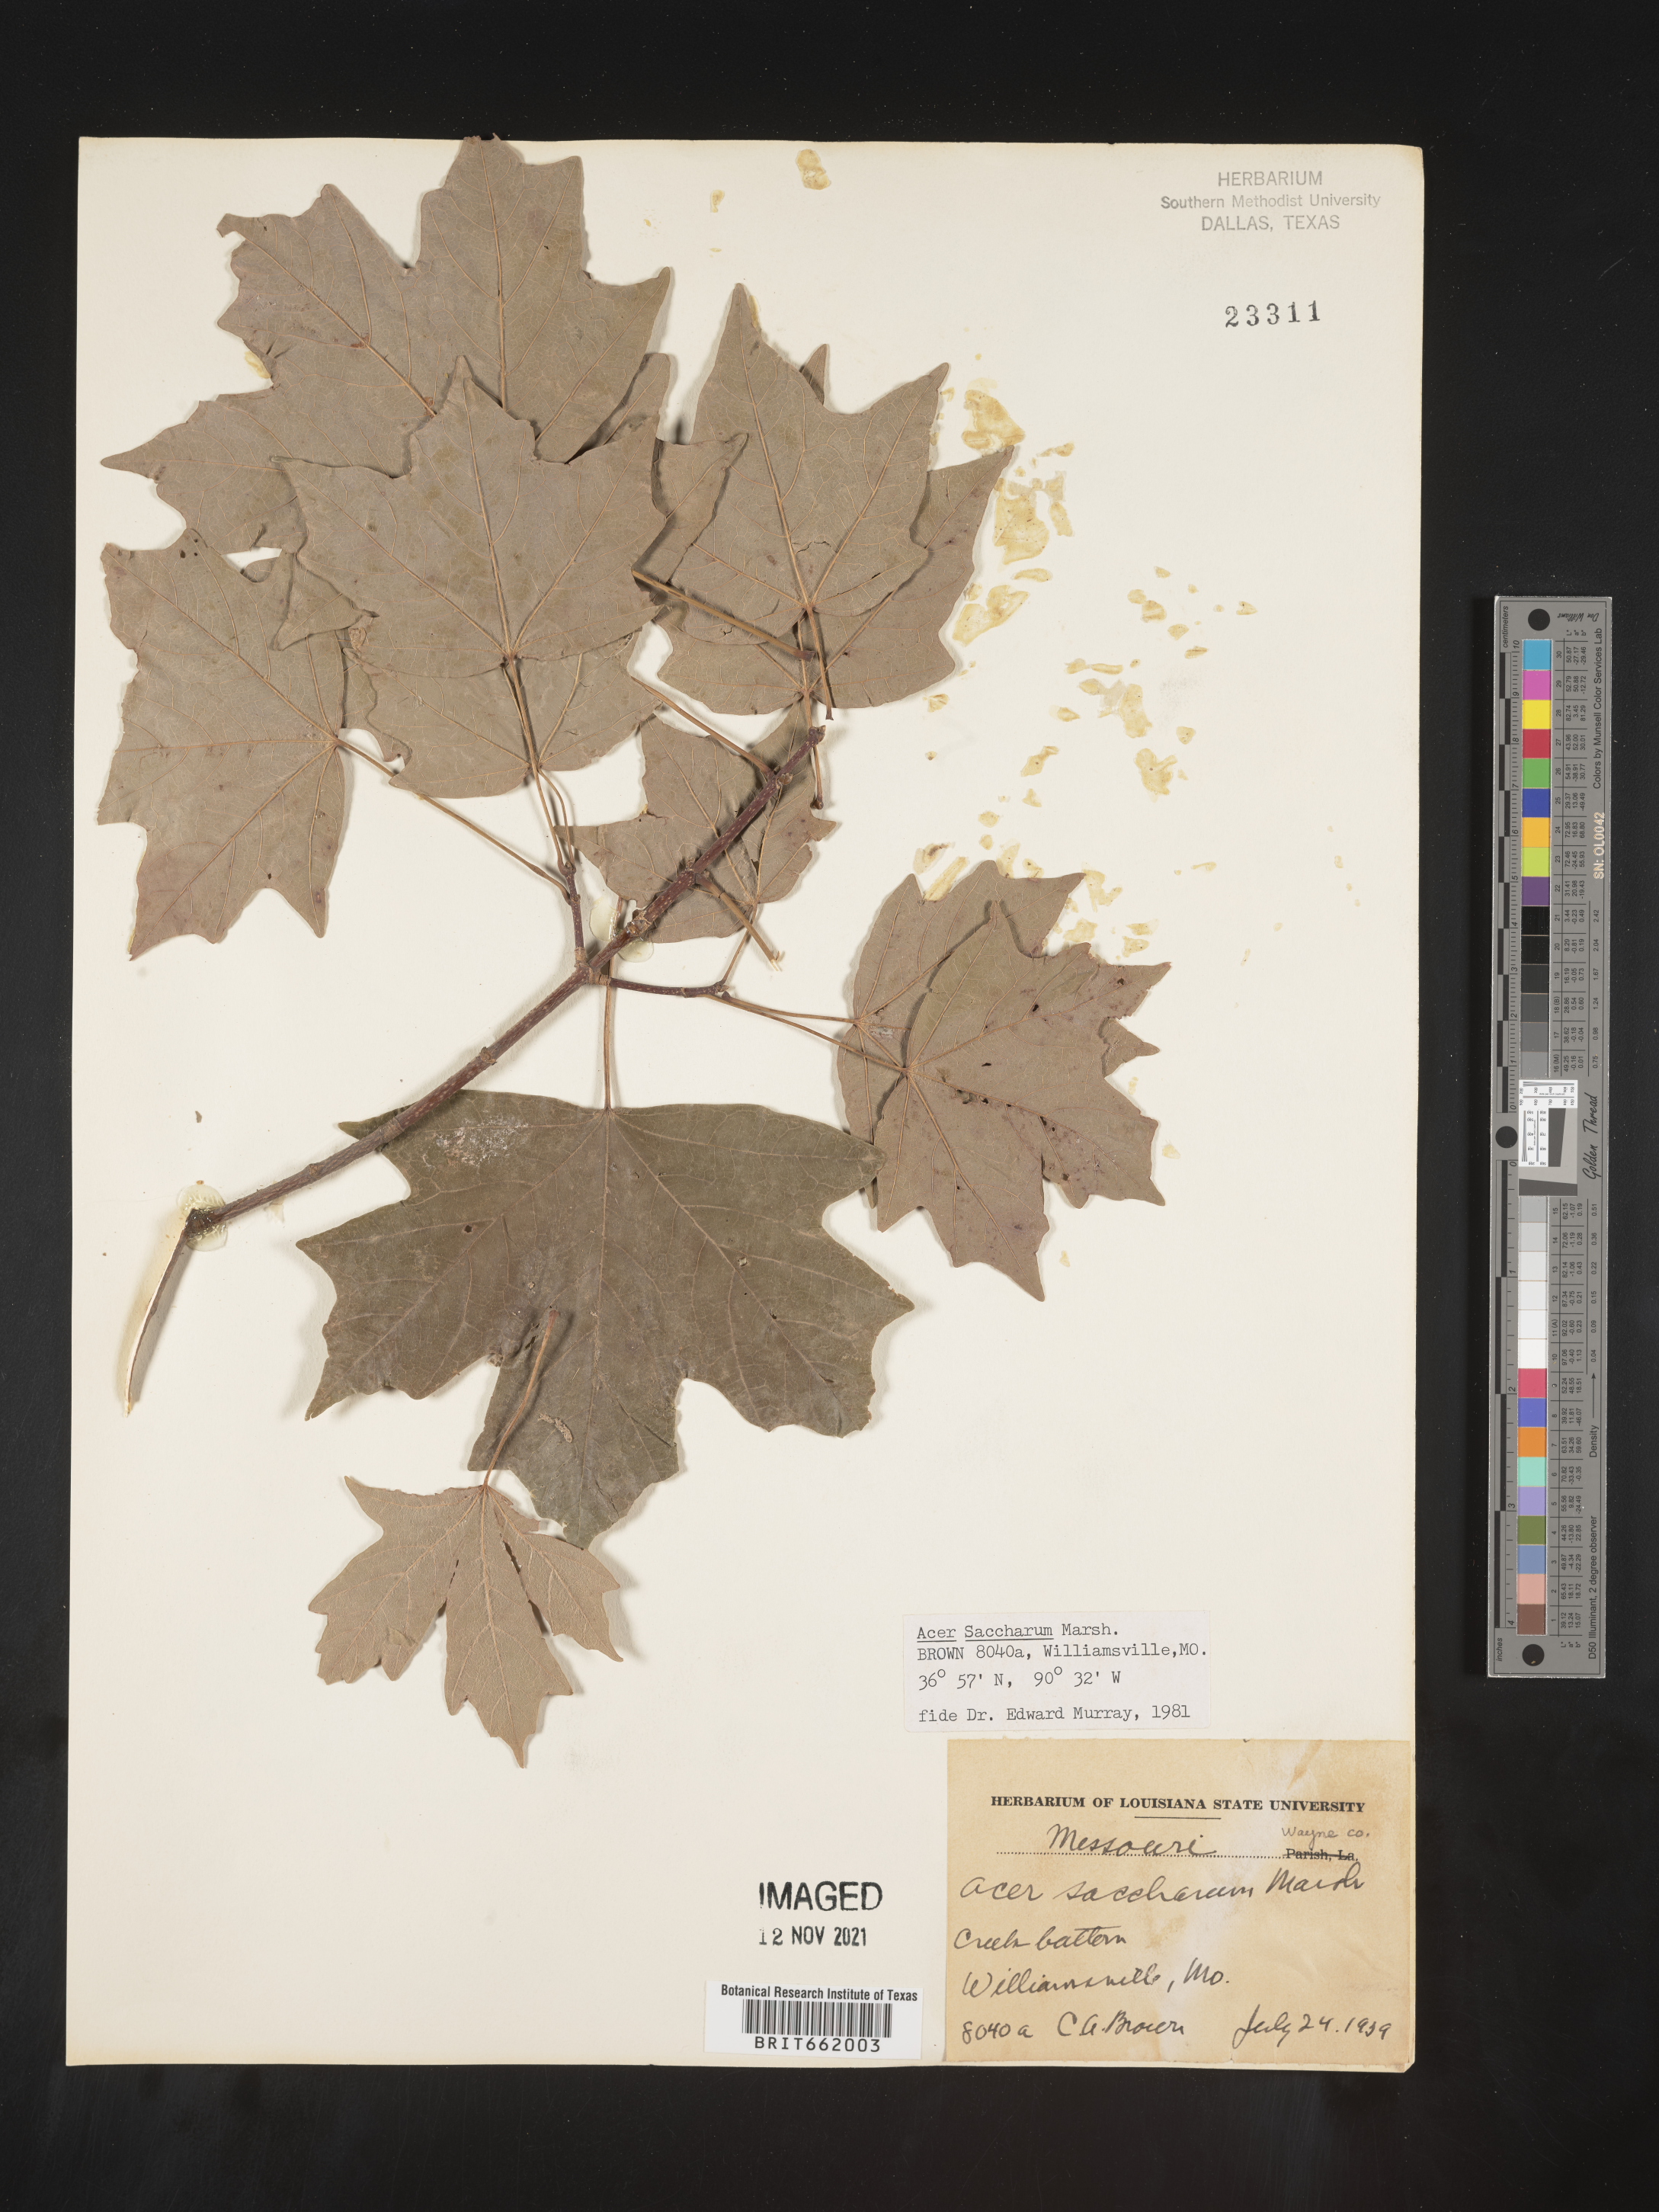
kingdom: Plantae
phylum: Tracheophyta
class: Magnoliopsida
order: Sapindales
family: Sapindaceae
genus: Acer
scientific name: Acer saccharum
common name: Sugar maple
